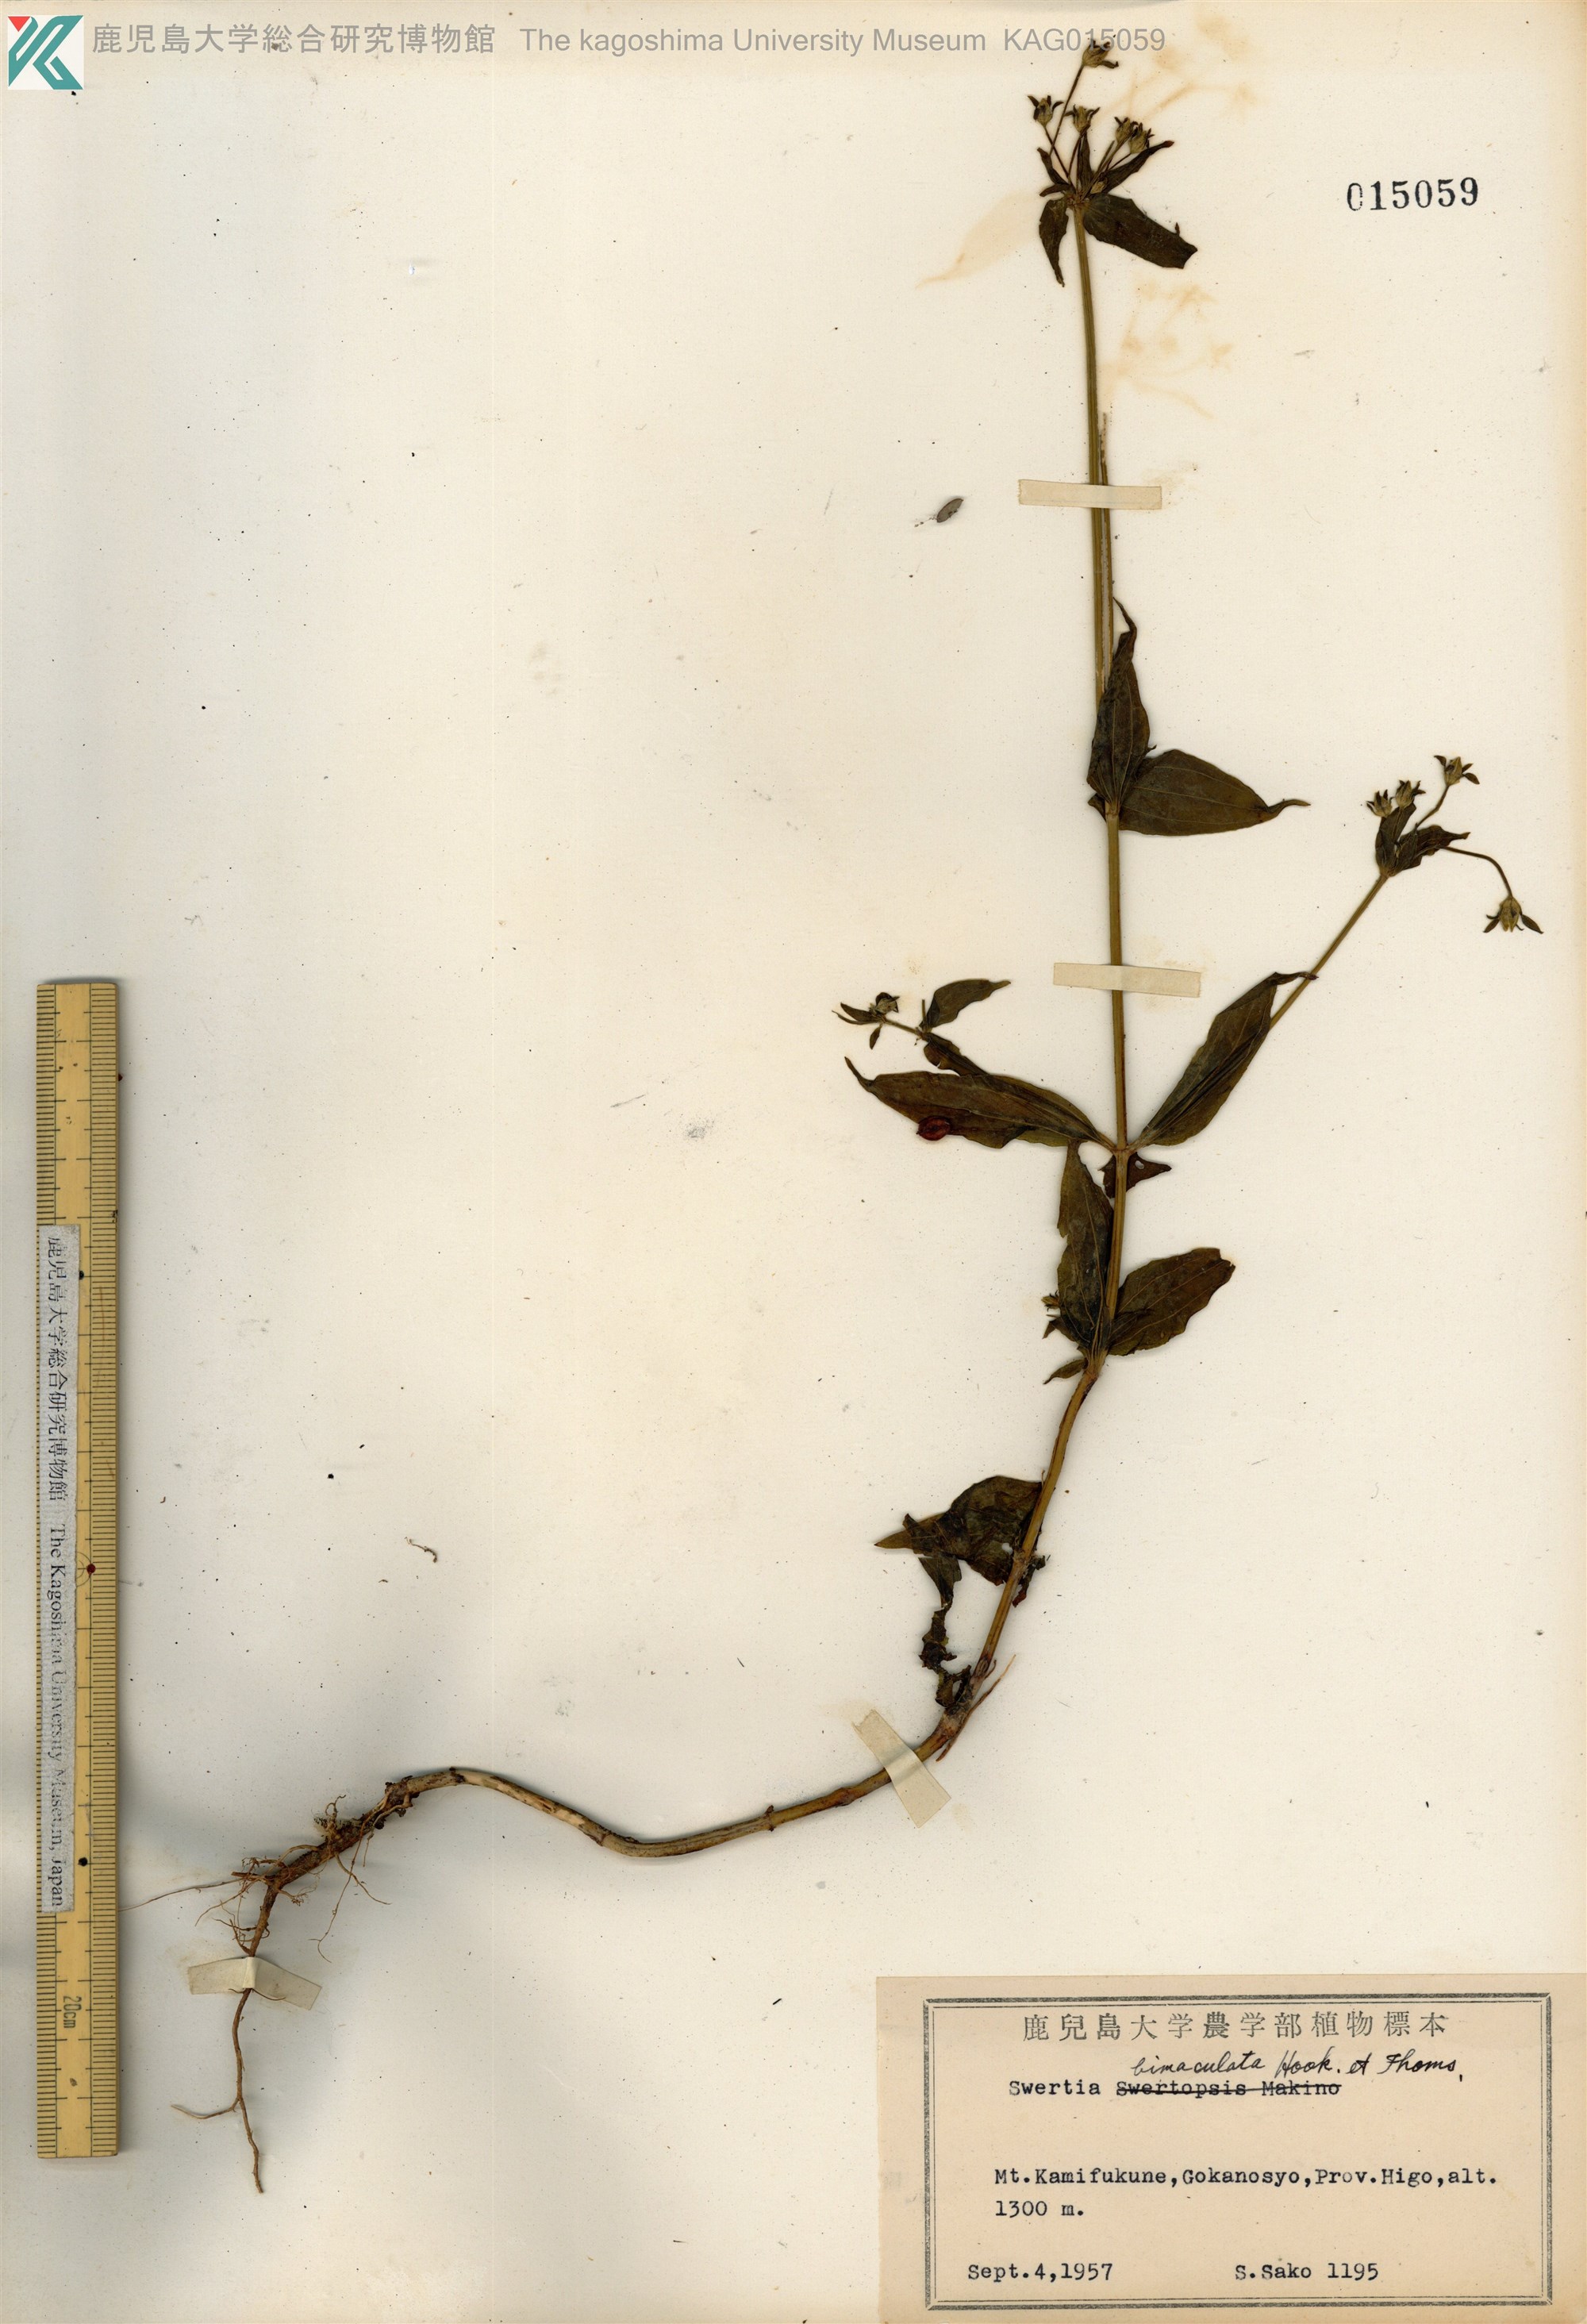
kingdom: Plantae
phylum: Tracheophyta
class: Magnoliopsida
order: Gentianales
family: Gentianaceae
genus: Swertia
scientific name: Swertia bimaculata
